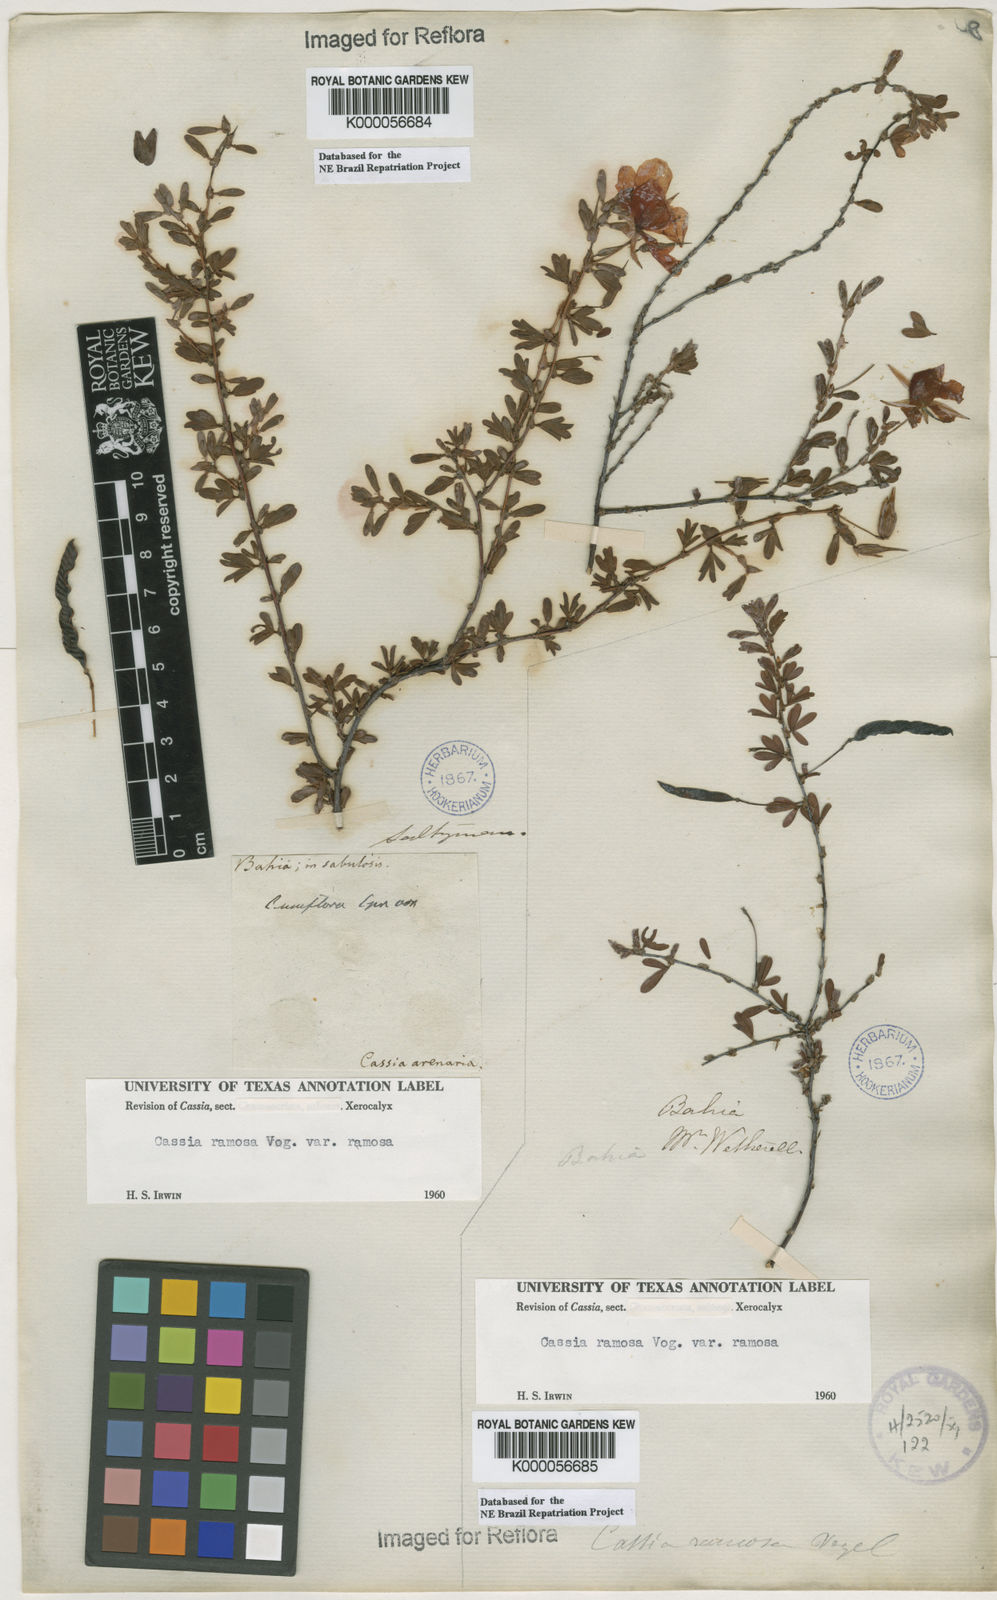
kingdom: Plantae
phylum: Tracheophyta
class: Magnoliopsida
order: Fabales
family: Fabaceae
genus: Chamaecrista
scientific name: Chamaecrista ramosa
